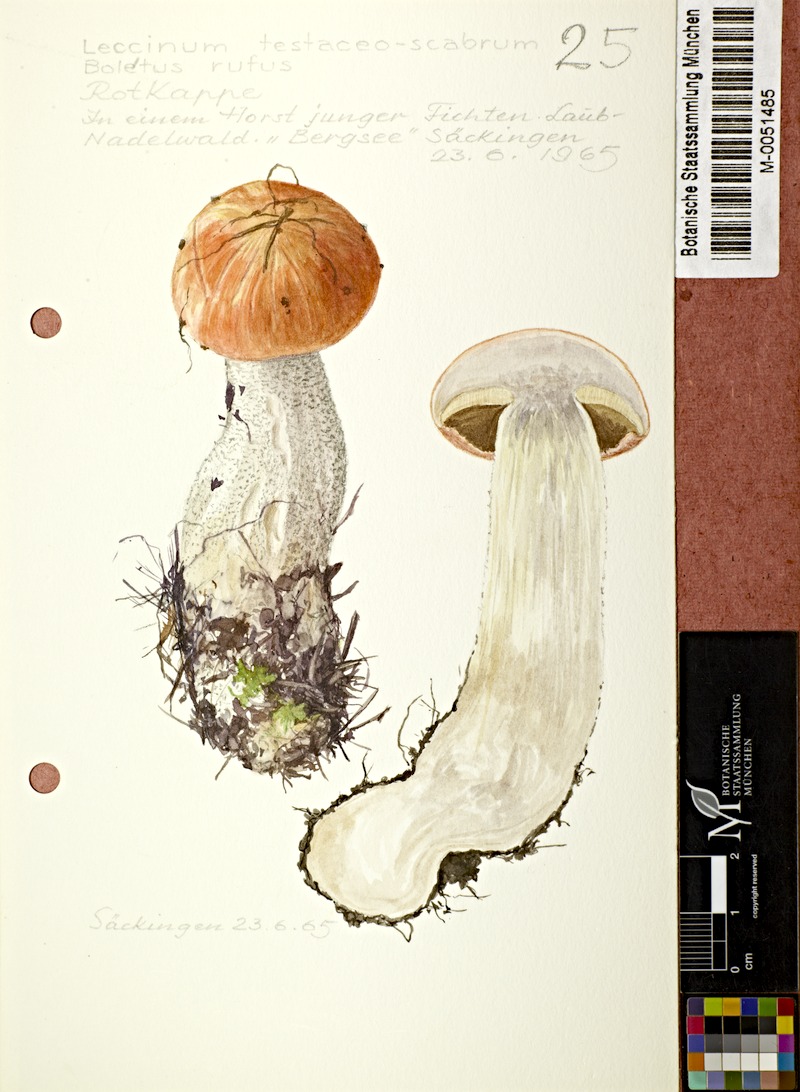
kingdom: Fungi
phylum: Basidiomycota
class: Agaricomycetes
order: Boletales
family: Boletaceae
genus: Leccinum
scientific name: Leccinum versipelle
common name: Orange birch bolete
